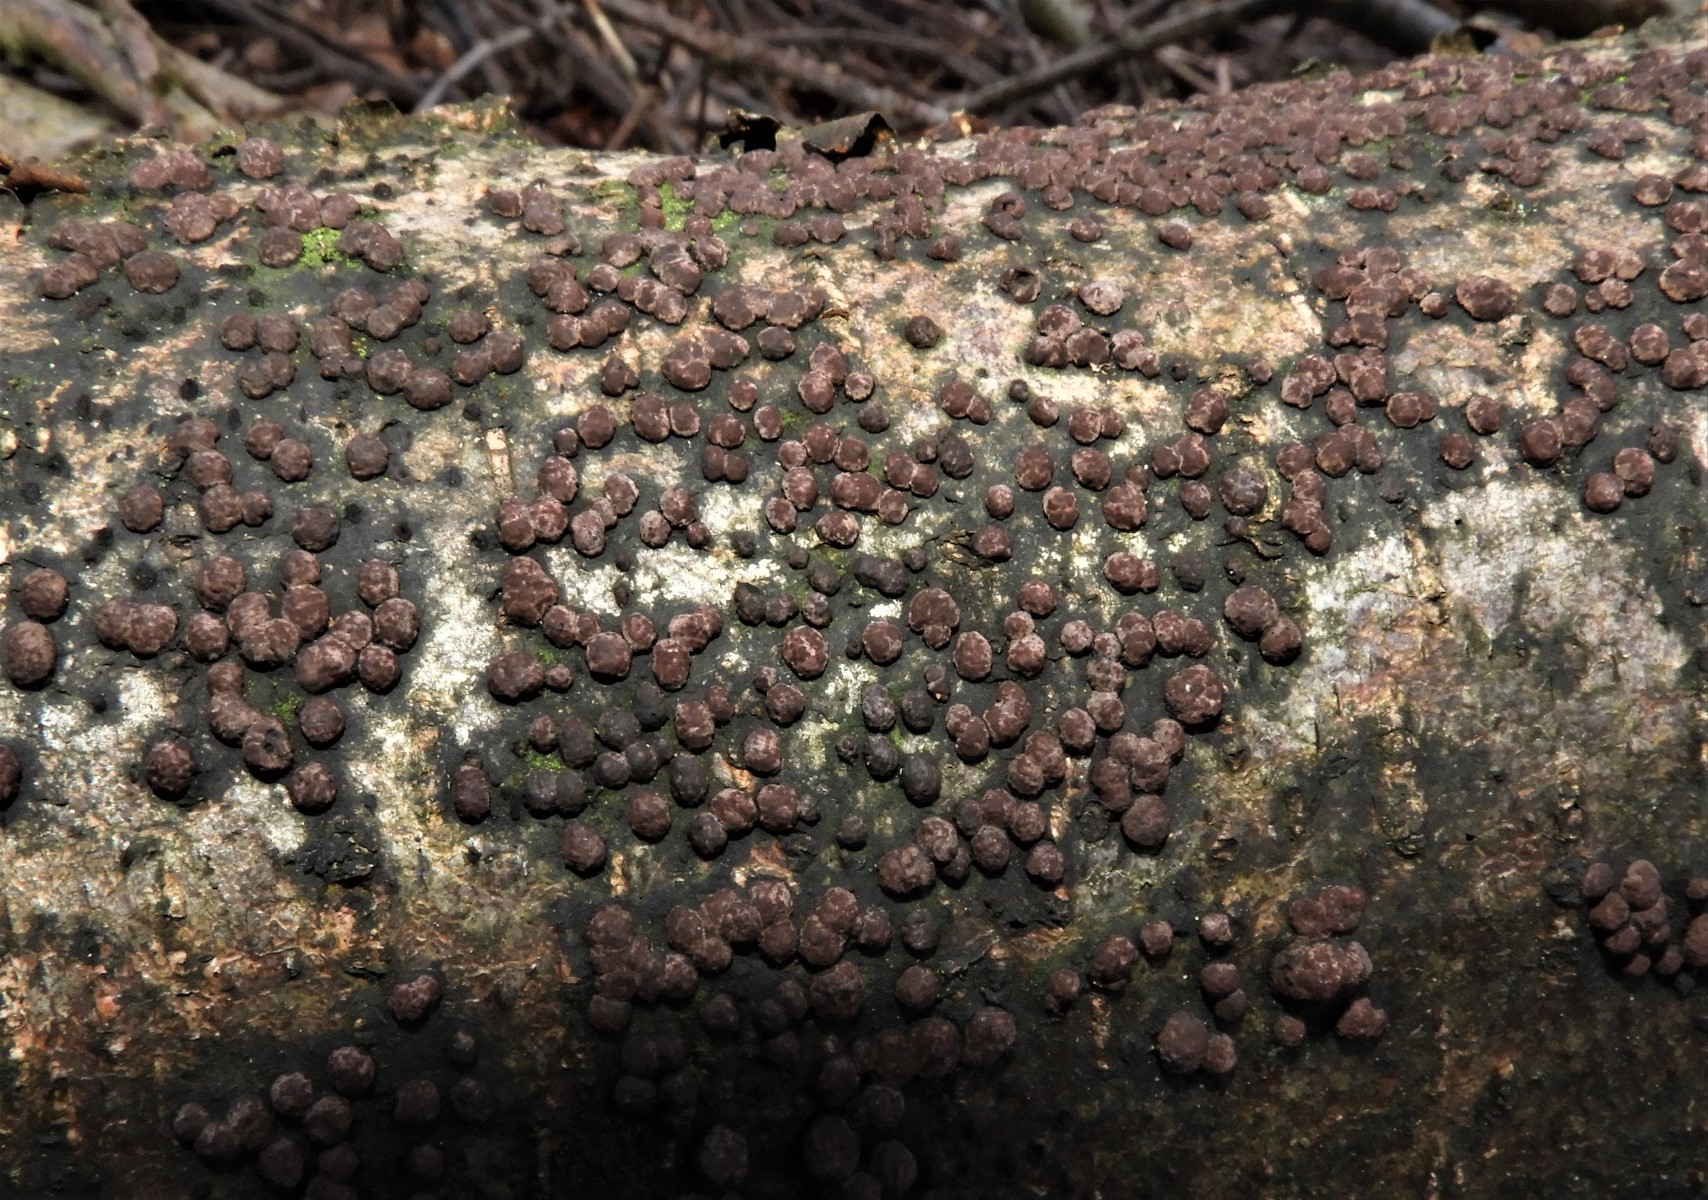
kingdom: Fungi
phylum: Ascomycota
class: Sordariomycetes
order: Xylariales
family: Hypoxylaceae
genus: Hypoxylon
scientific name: Hypoxylon fuscum
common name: kegleformet kulbær
